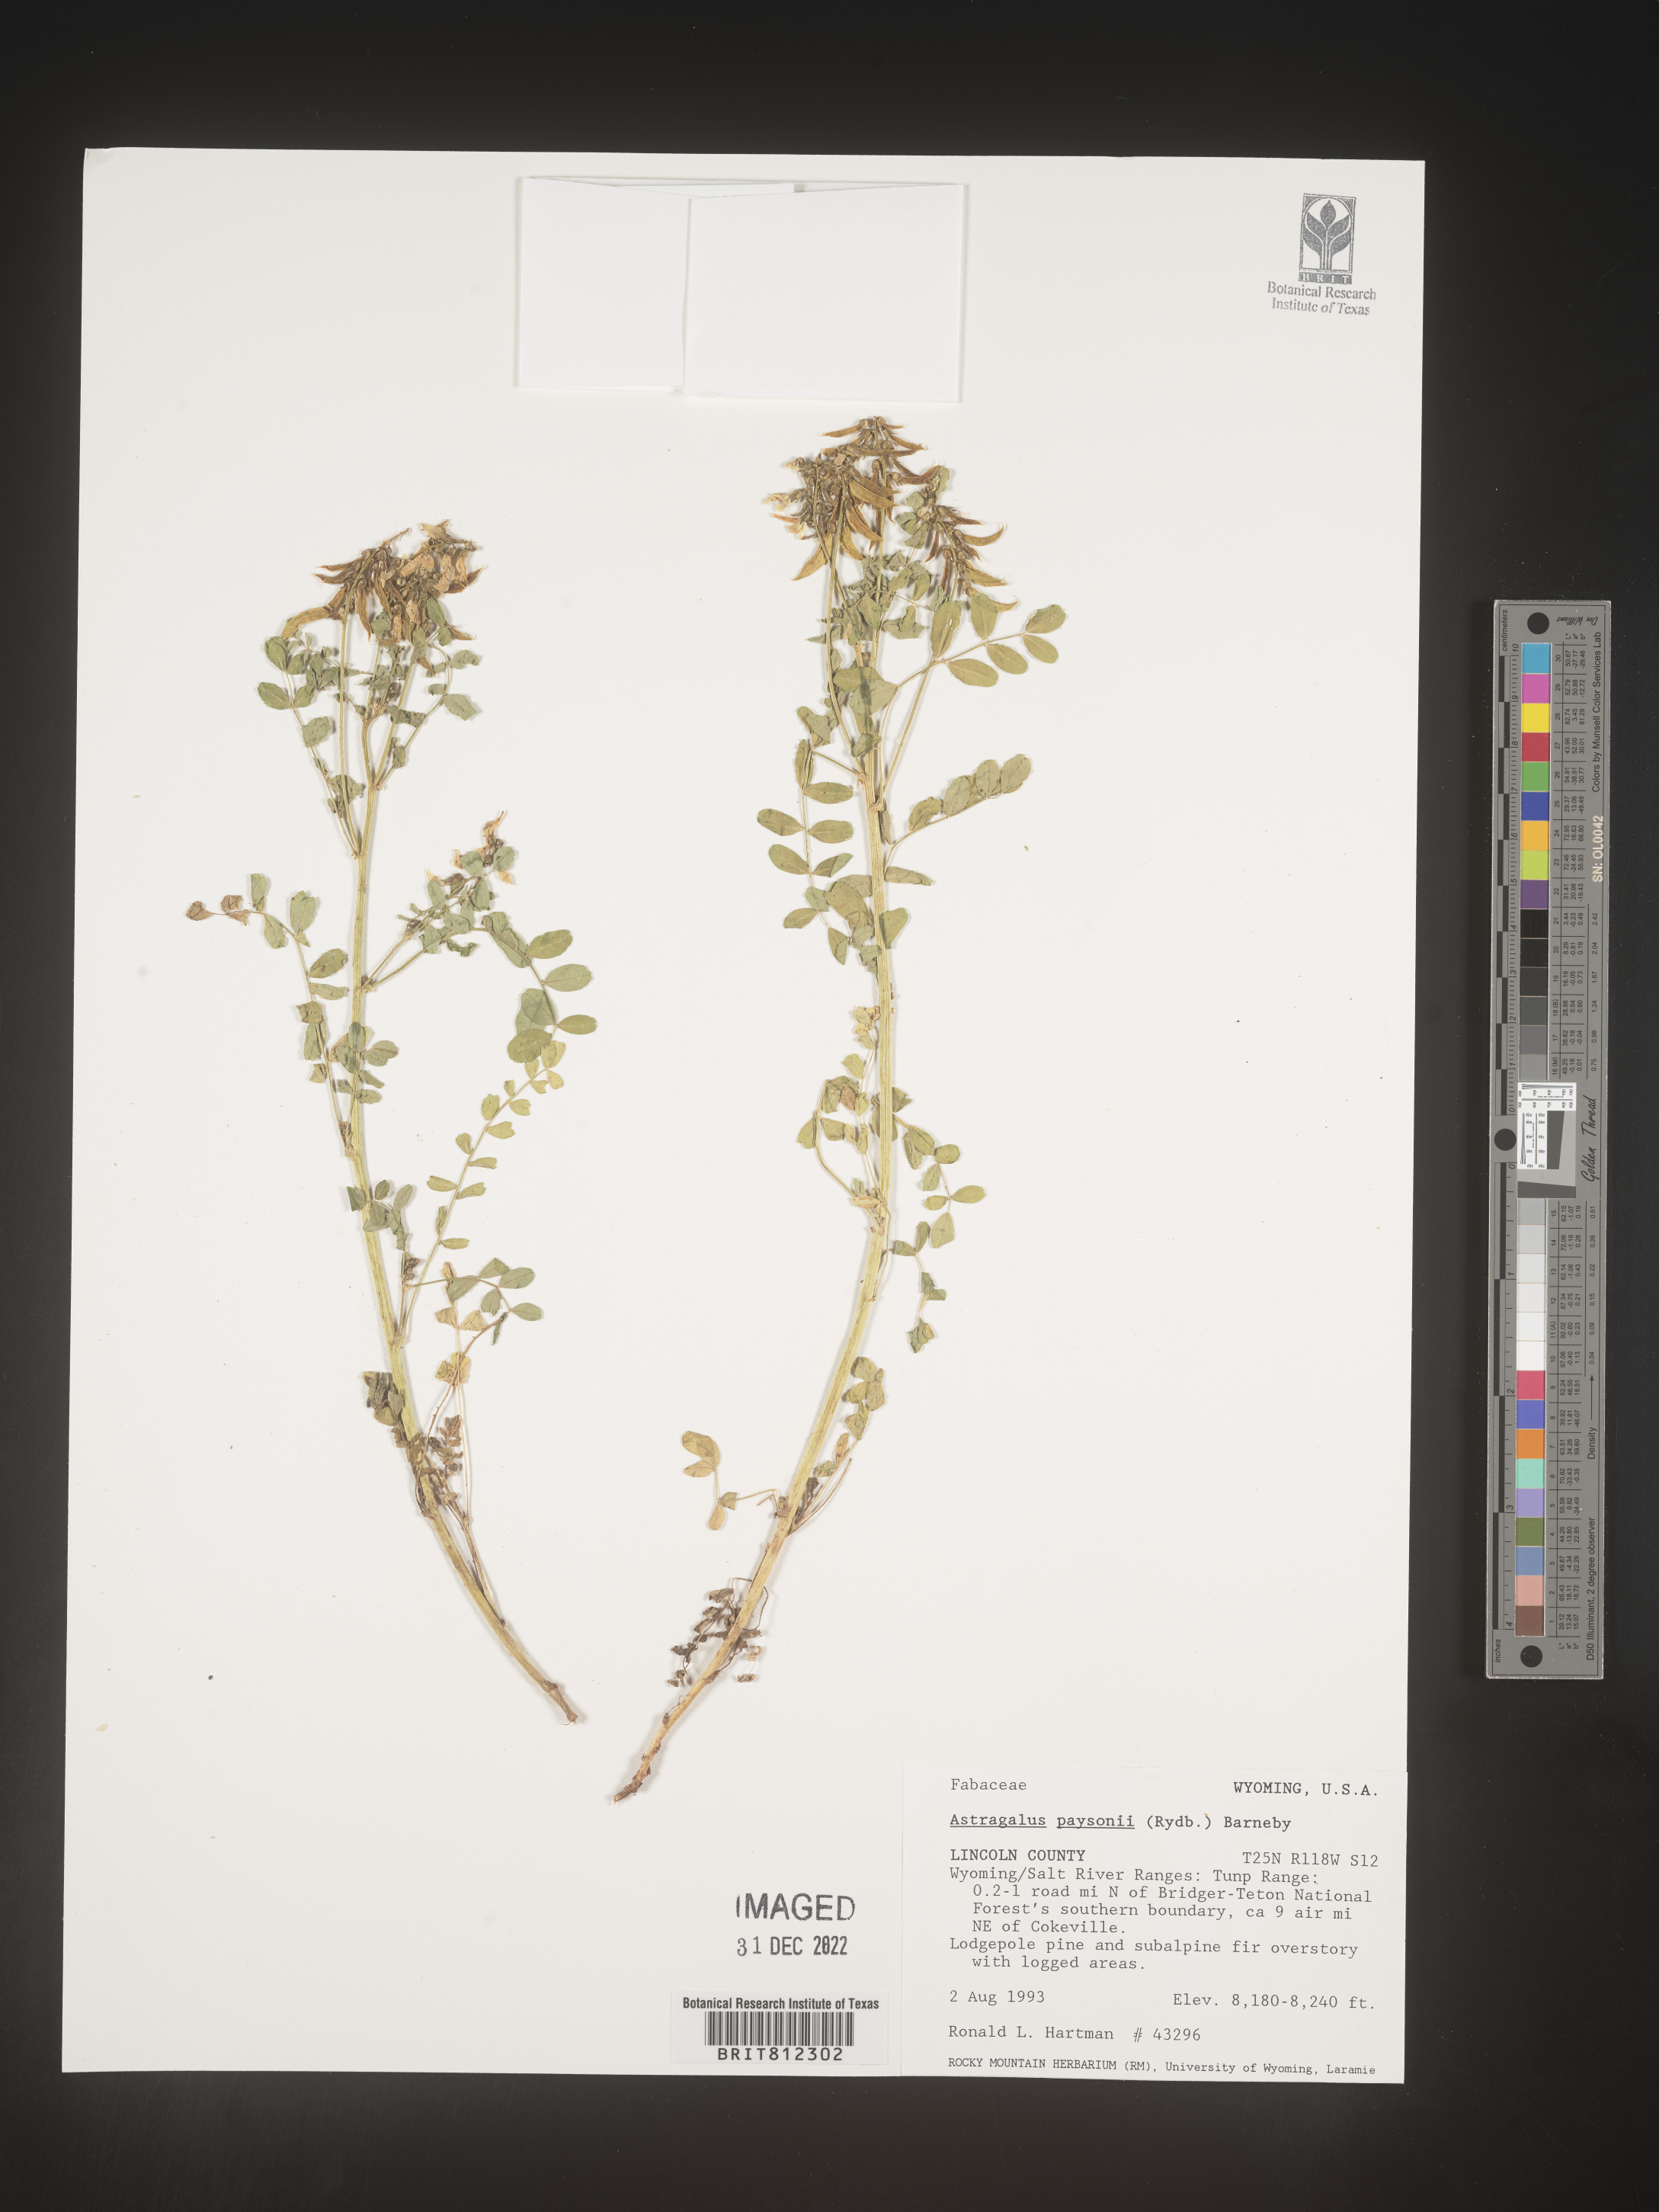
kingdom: Plantae
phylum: Tracheophyta
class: Magnoliopsida
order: Fabales
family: Fabaceae
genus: Astragalus
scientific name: Astragalus
